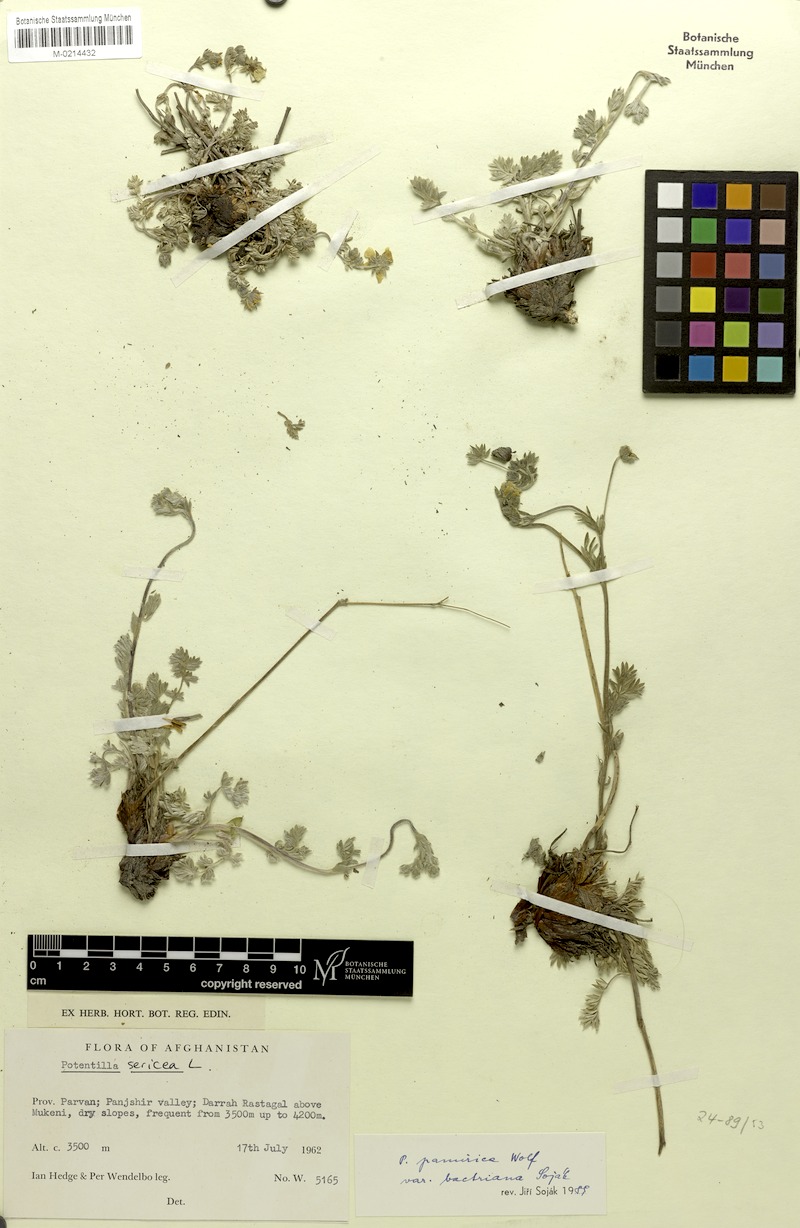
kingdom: Plantae
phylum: Tracheophyta
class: Magnoliopsida
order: Rosales
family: Rosaceae
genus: Potentilla
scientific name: Potentilla pamirica
